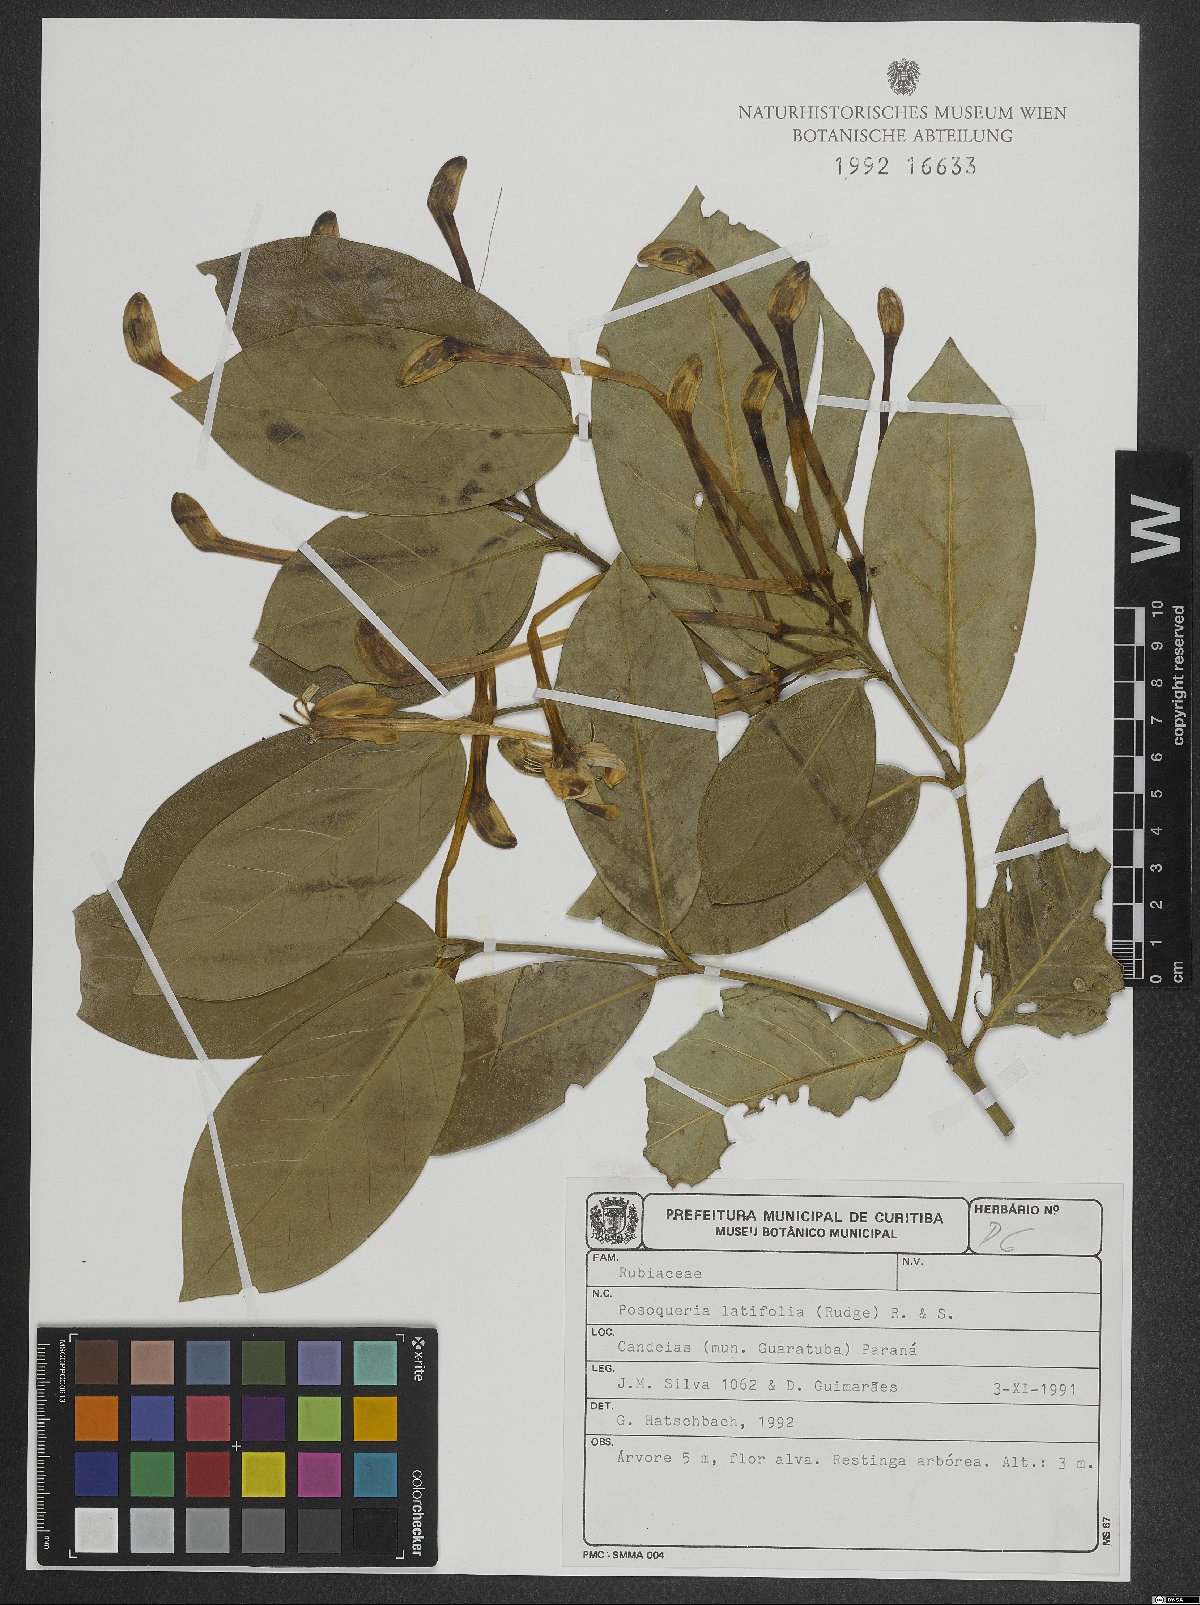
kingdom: Plantae
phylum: Tracheophyta
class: Magnoliopsida
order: Gentianales
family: Rubiaceae
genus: Posoqueria
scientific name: Posoqueria latifolia
